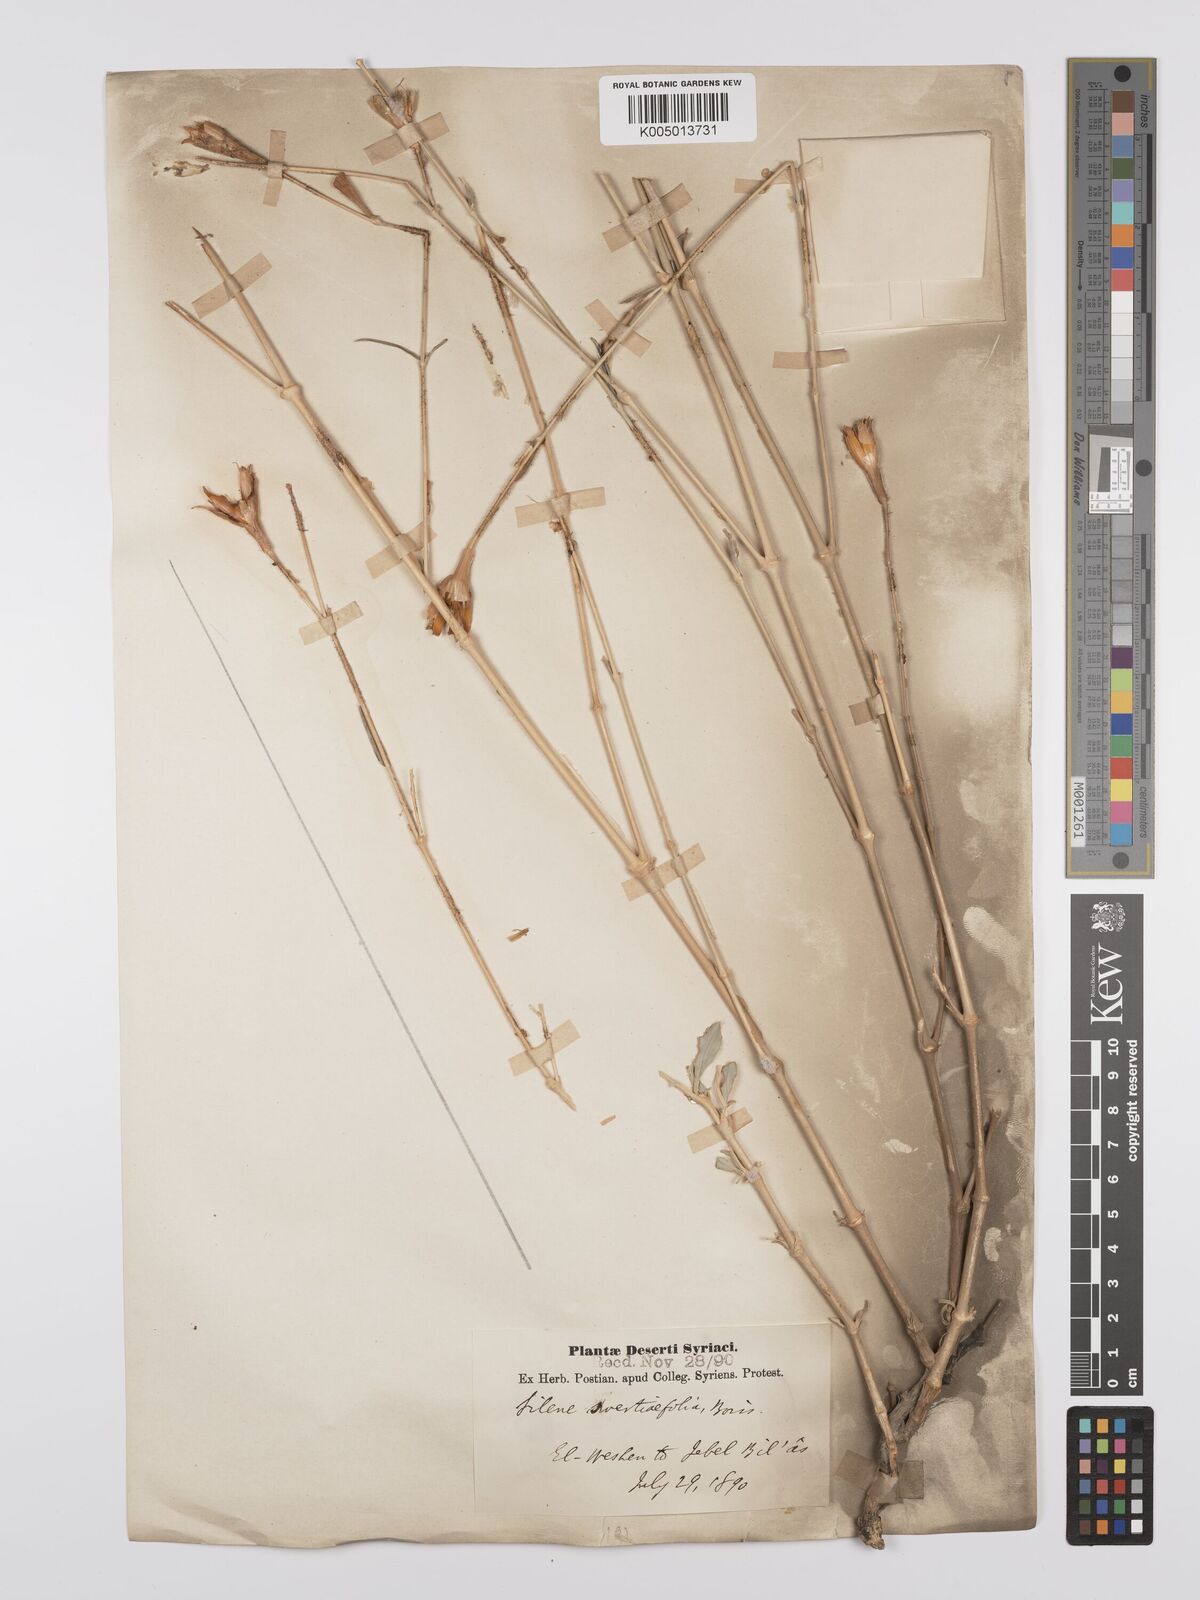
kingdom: Plantae
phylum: Tracheophyta
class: Magnoliopsida
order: Caryophyllales
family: Caryophyllaceae
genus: Silene
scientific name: Silene swertiifolia
